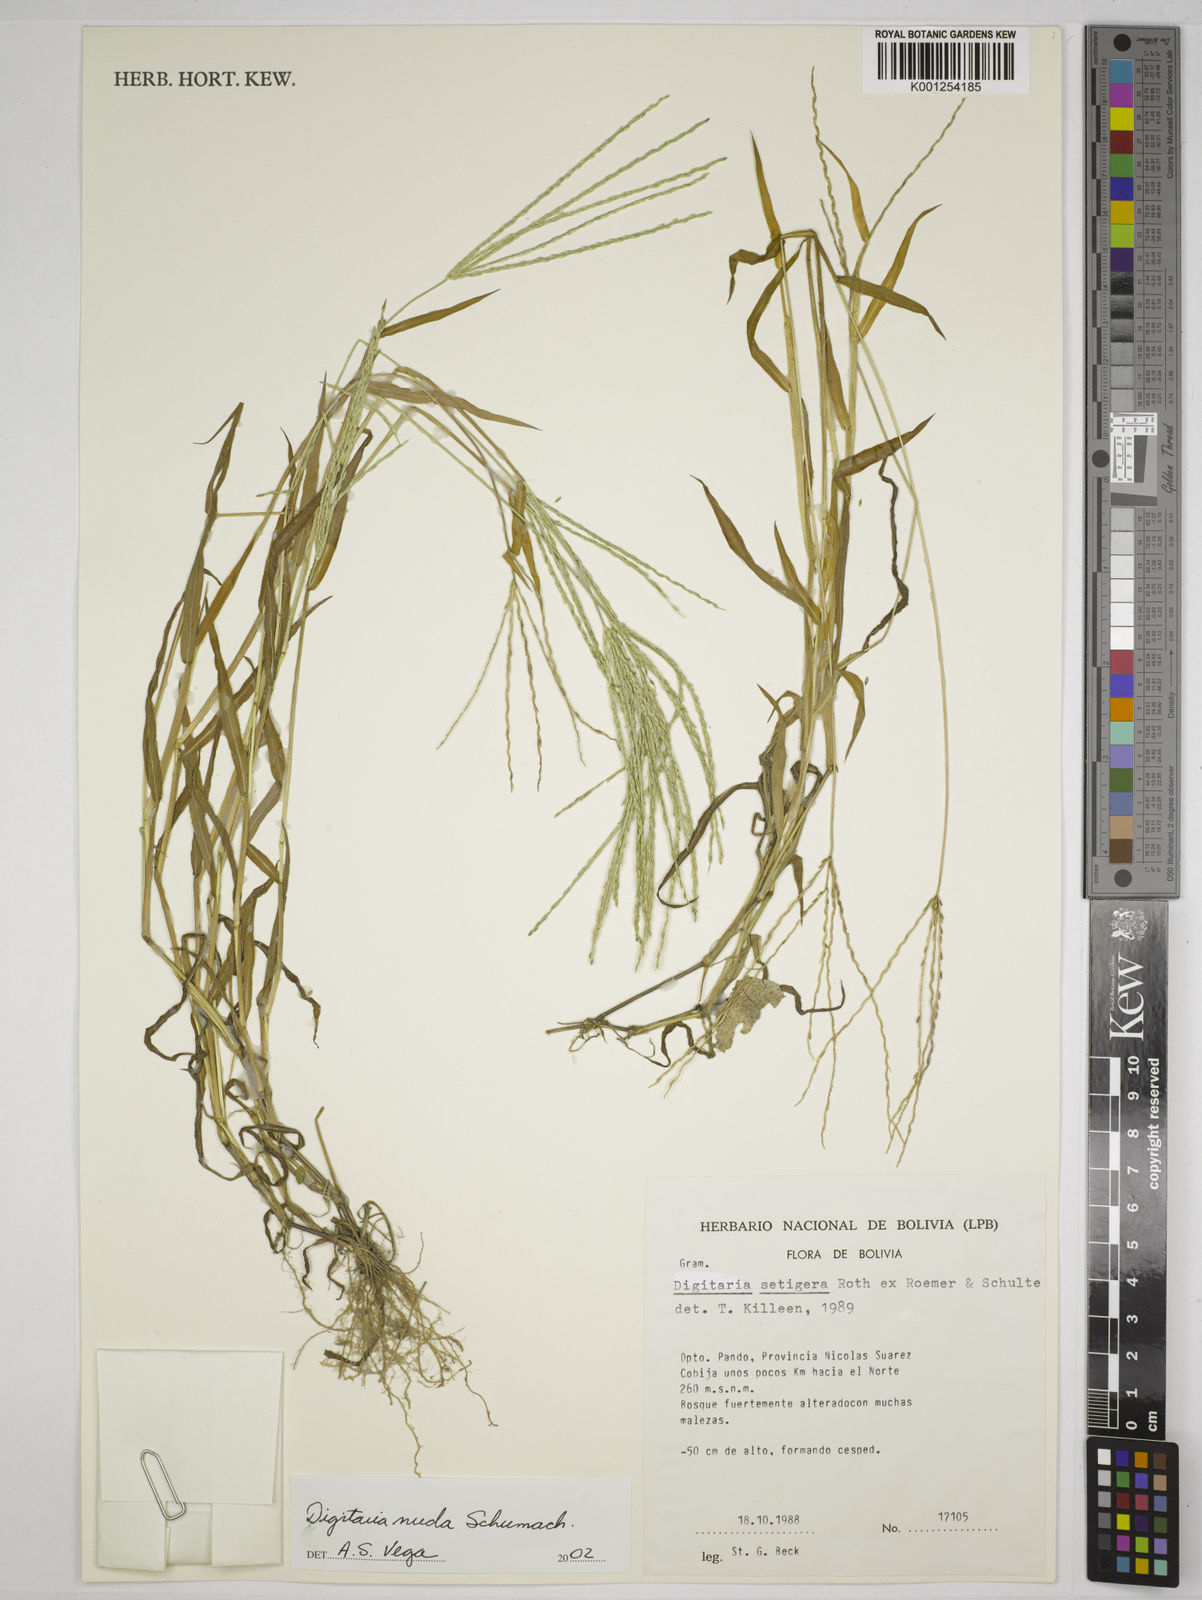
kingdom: Plantae
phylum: Tracheophyta
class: Liliopsida
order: Poales
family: Poaceae
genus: Digitaria
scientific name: Digitaria nuda
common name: Naked crabgrass
